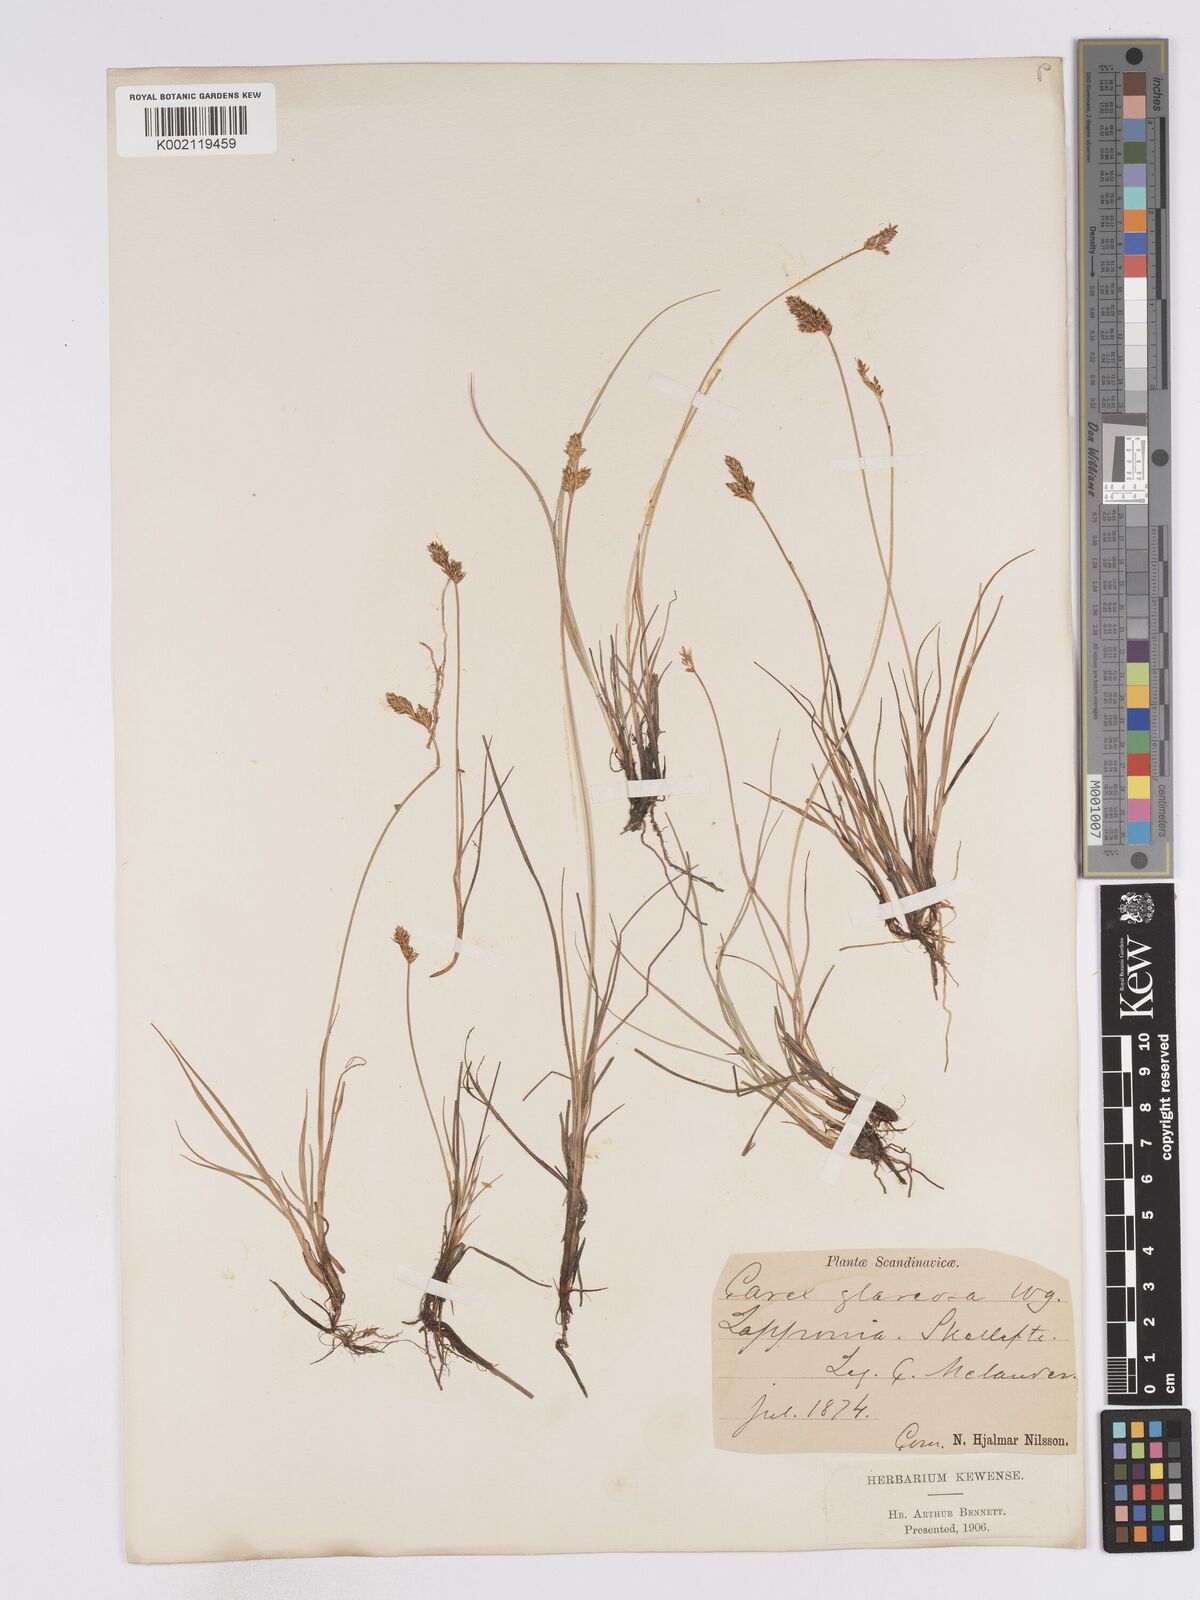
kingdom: Plantae
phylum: Tracheophyta
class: Liliopsida
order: Poales
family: Cyperaceae
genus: Carex
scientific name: Carex glareosa
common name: Clustered sedge
